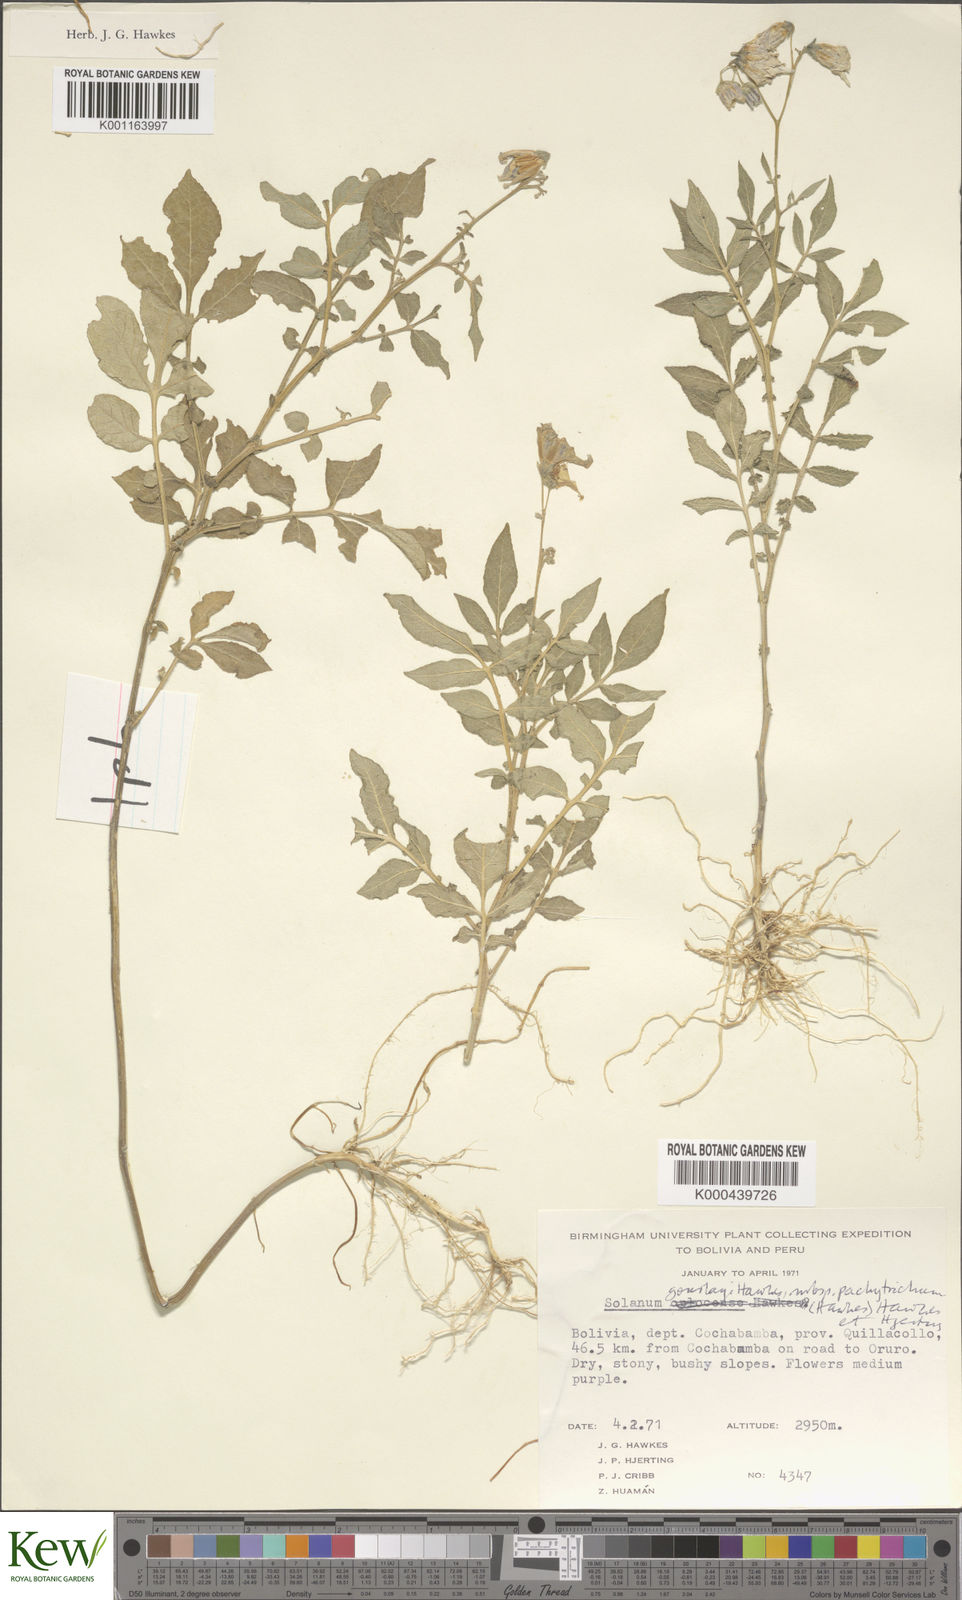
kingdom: Plantae
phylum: Tracheophyta
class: Magnoliopsida
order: Solanales
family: Solanaceae
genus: Solanum
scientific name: Solanum brevicaule
